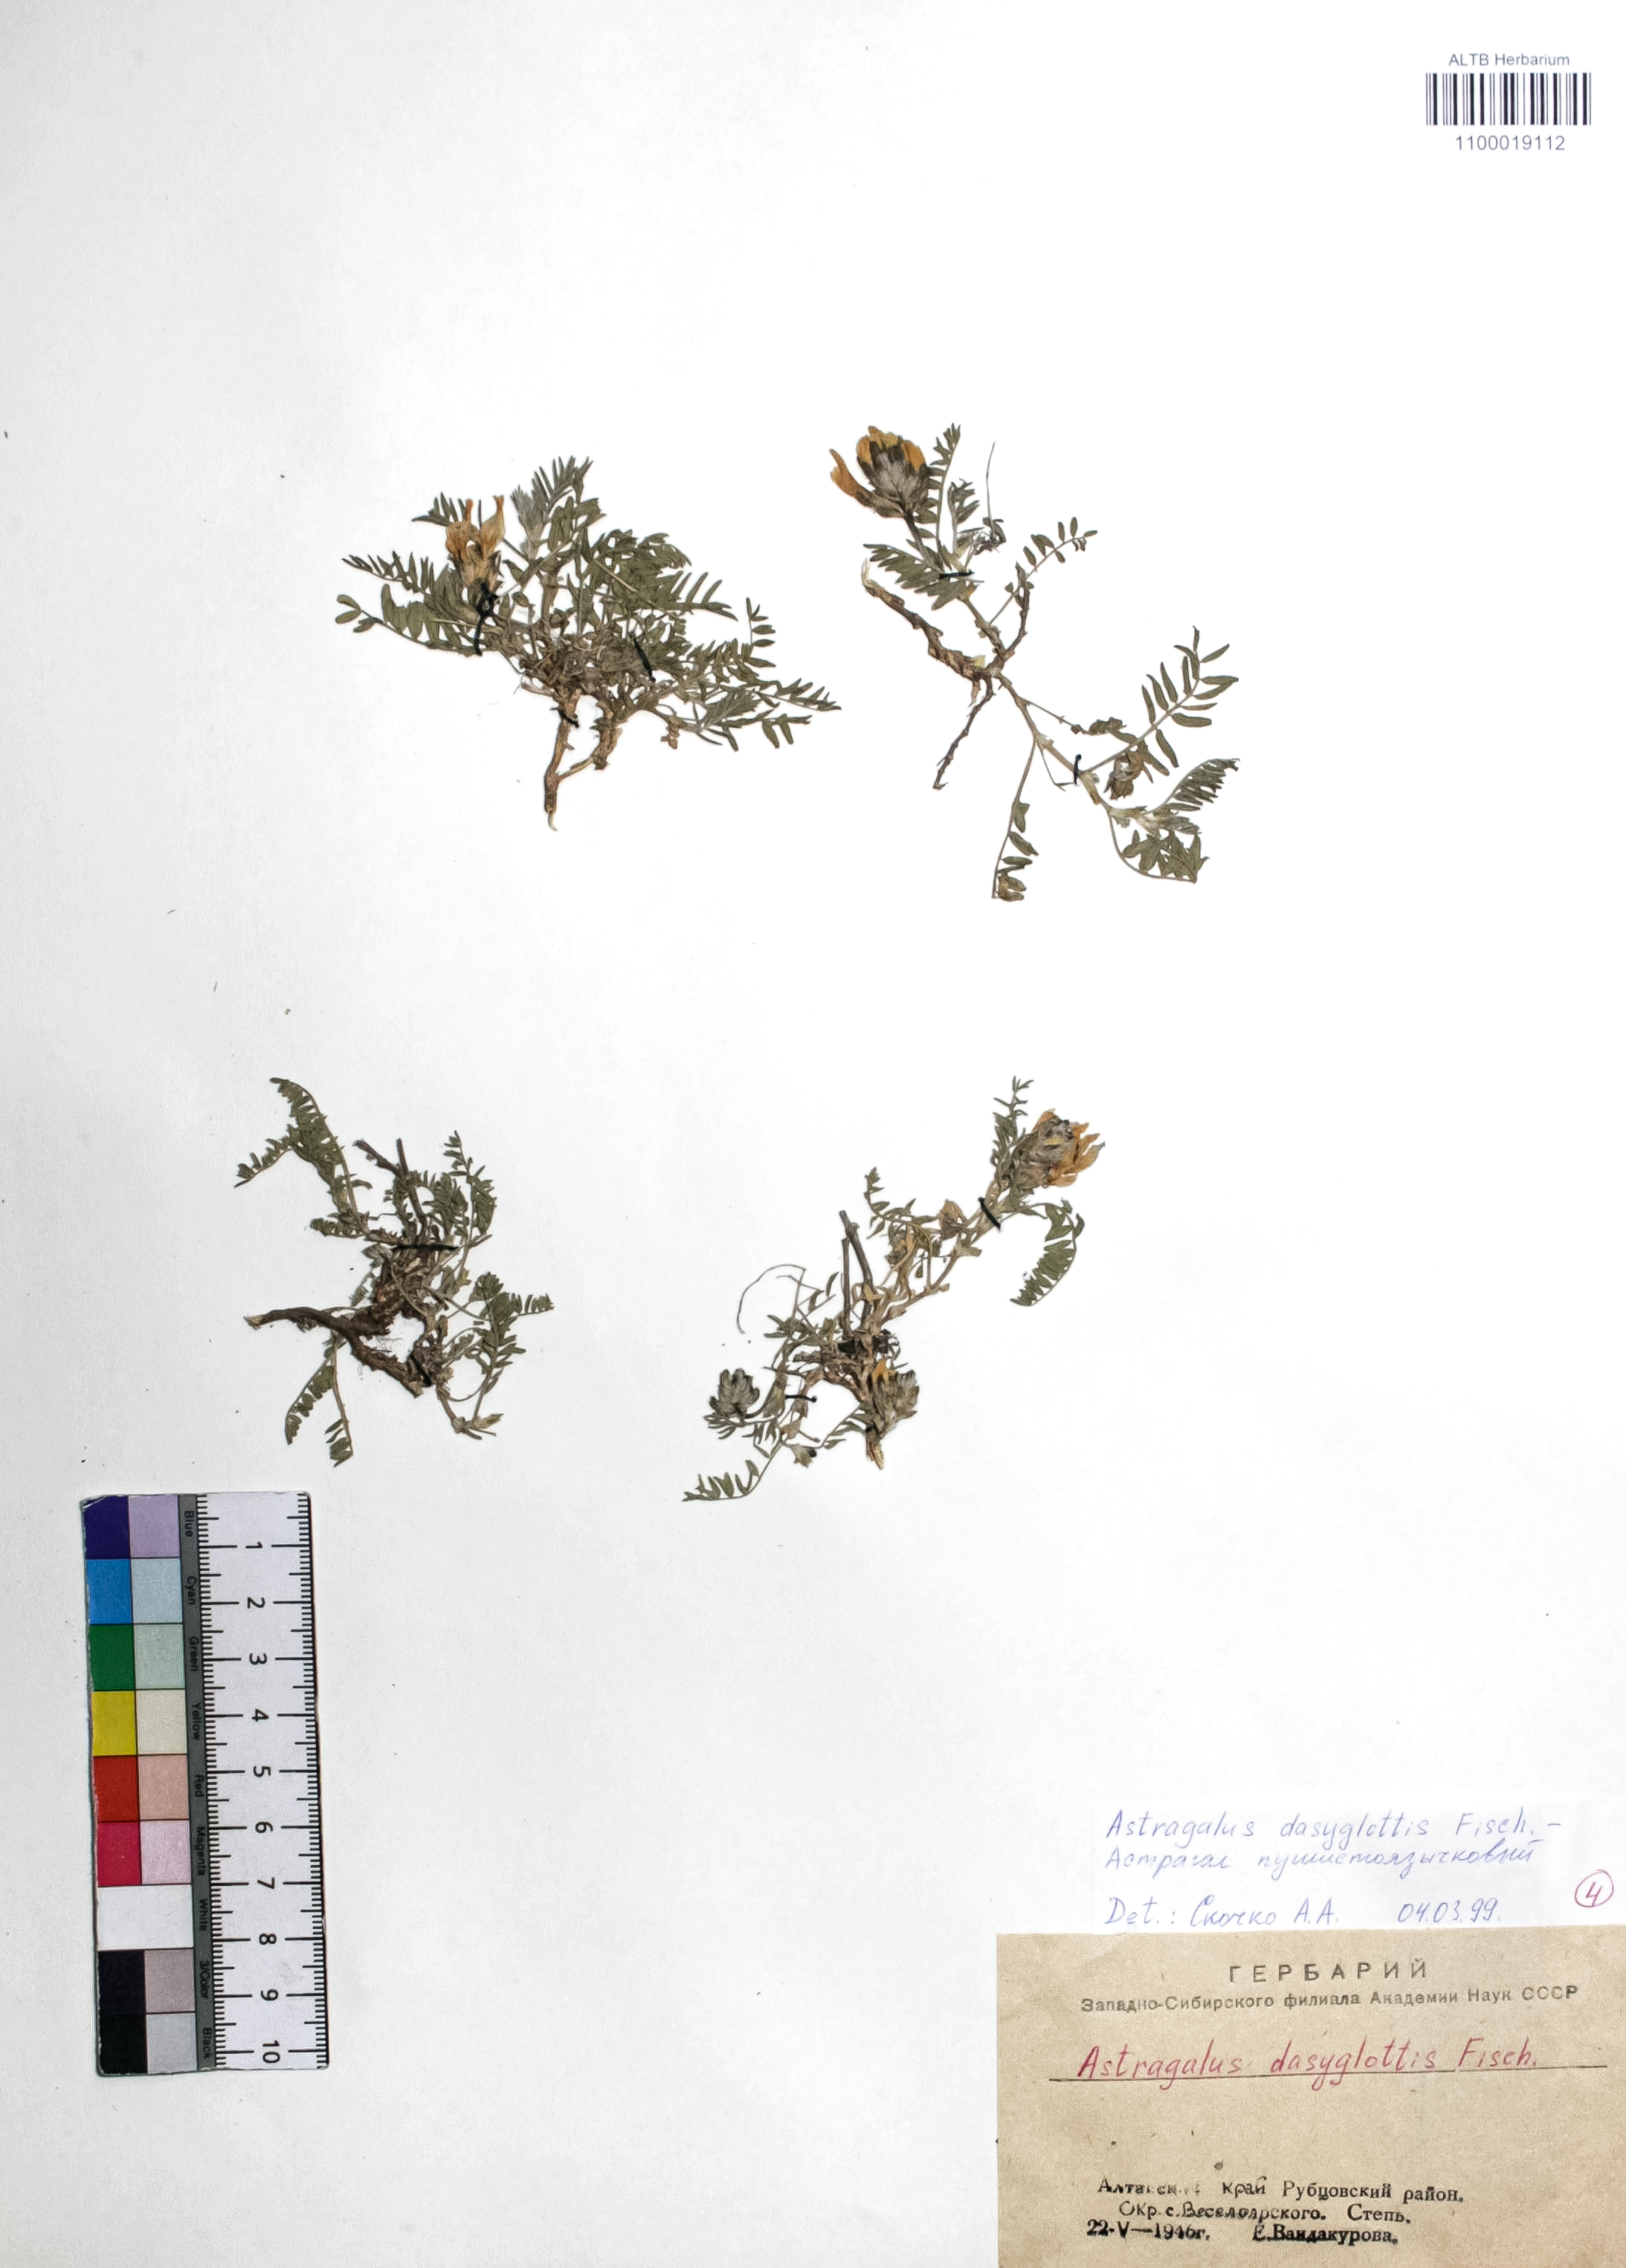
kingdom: Plantae
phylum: Tracheophyta
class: Magnoliopsida
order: Fabales
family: Fabaceae
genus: Astragalus
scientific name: Astragalus agrestis
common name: Field milk-vetch
